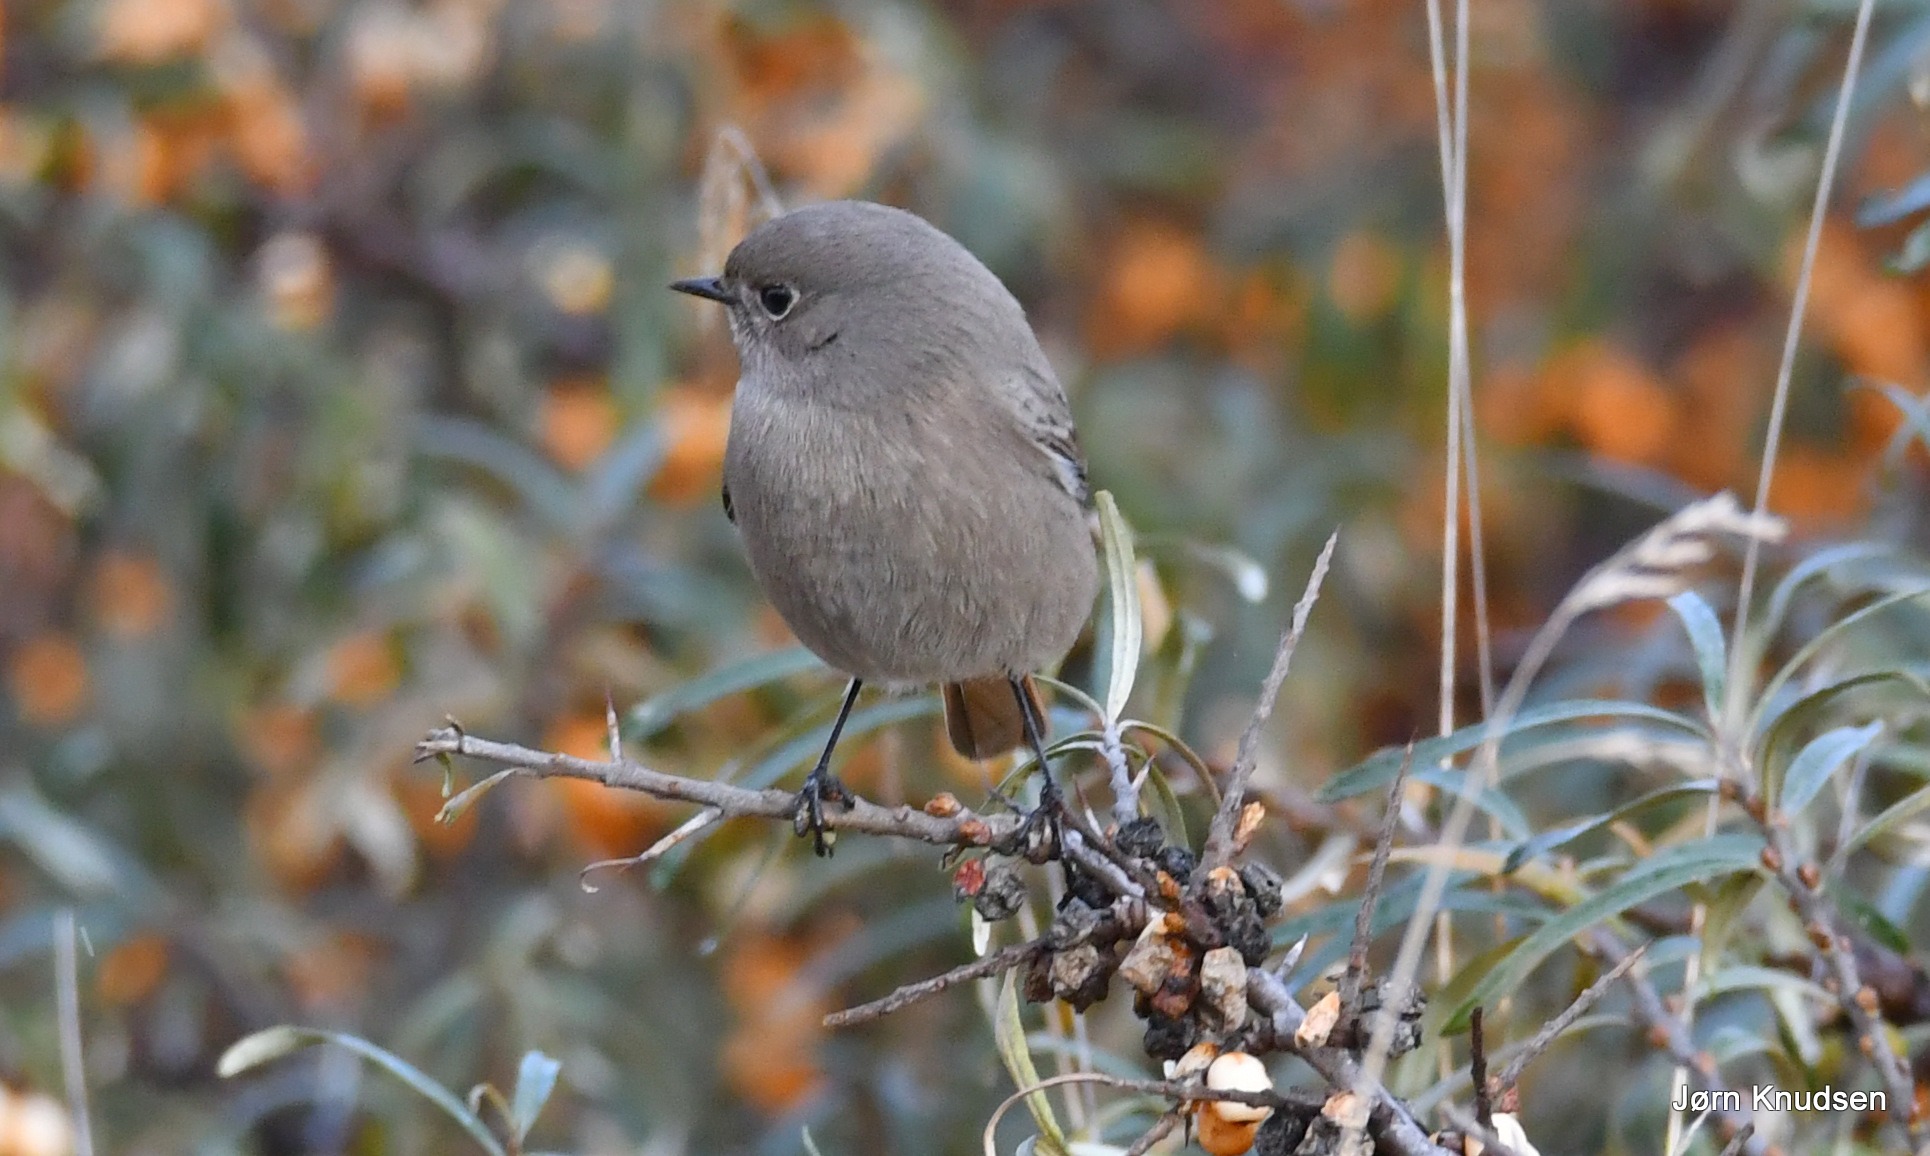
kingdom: Animalia
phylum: Chordata
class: Aves
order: Passeriformes
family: Muscicapidae
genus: Phoenicurus
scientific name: Phoenicurus ochruros
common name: Husrødstjert
